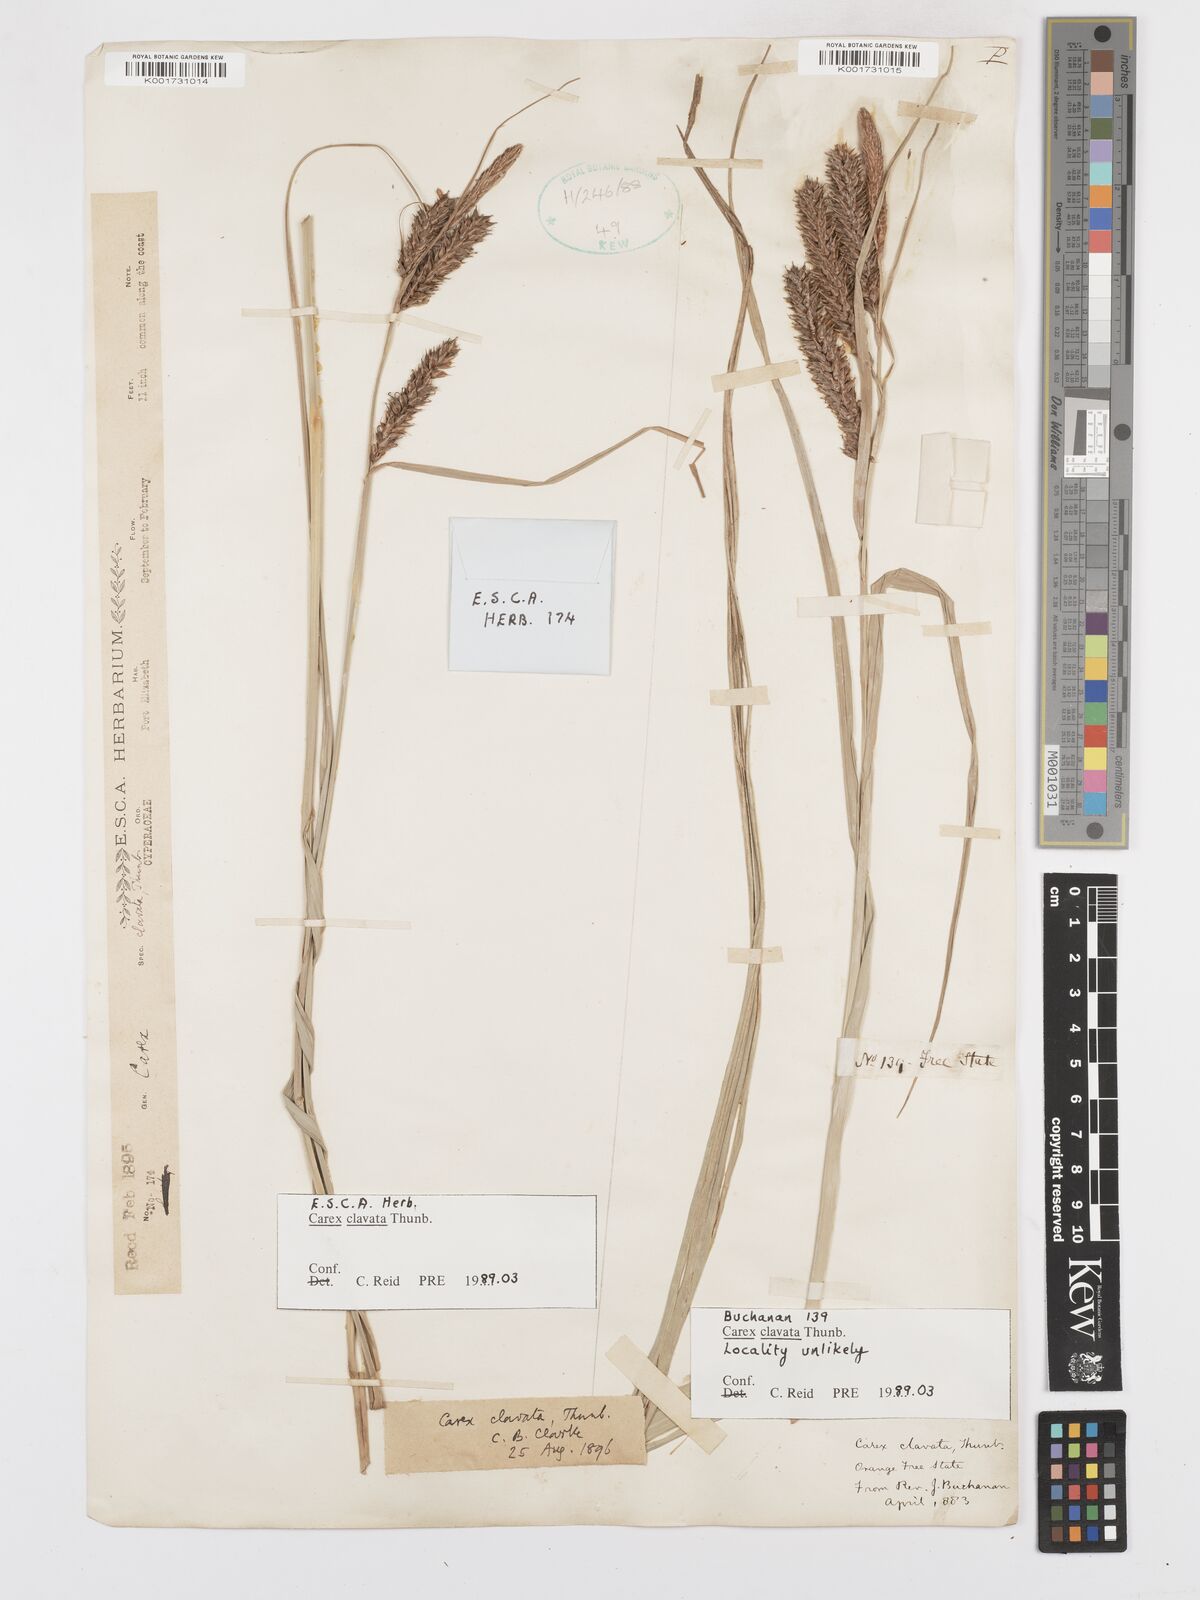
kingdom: Plantae
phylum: Tracheophyta
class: Liliopsida
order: Poales
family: Cyperaceae
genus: Carex
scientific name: Carex clavata
